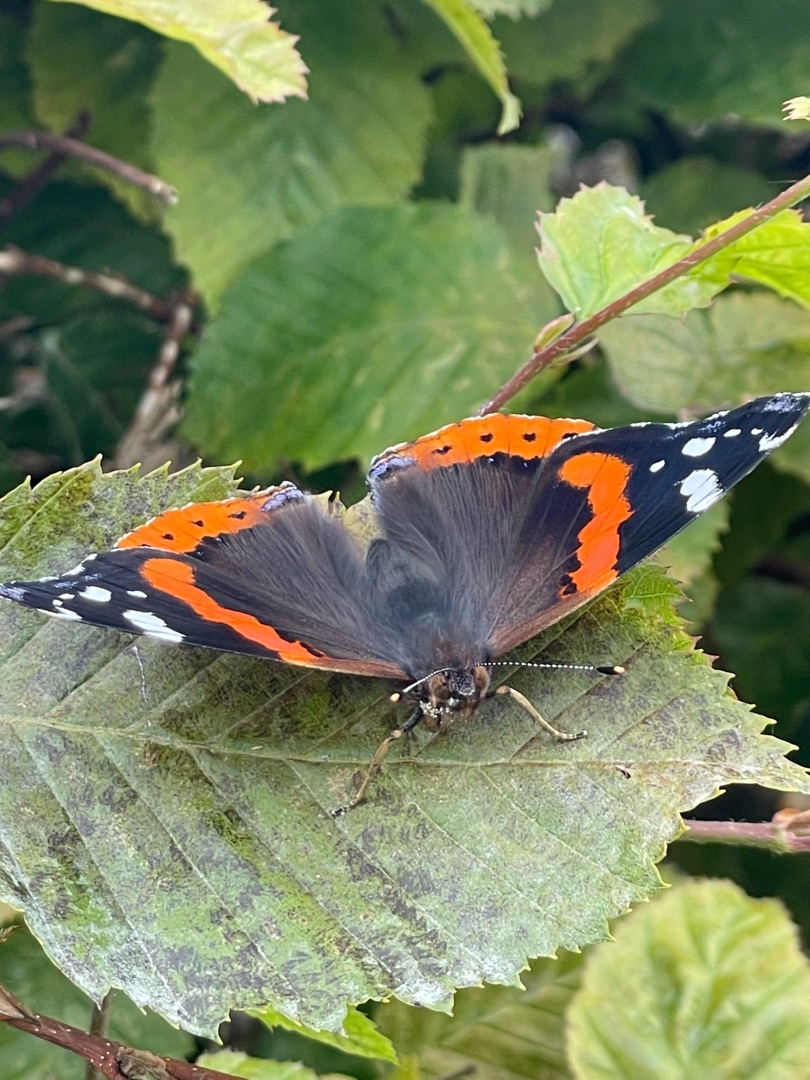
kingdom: Animalia
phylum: Arthropoda
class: Insecta
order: Lepidoptera
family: Nymphalidae
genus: Vanessa
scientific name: Vanessa atalanta
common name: Admiral
